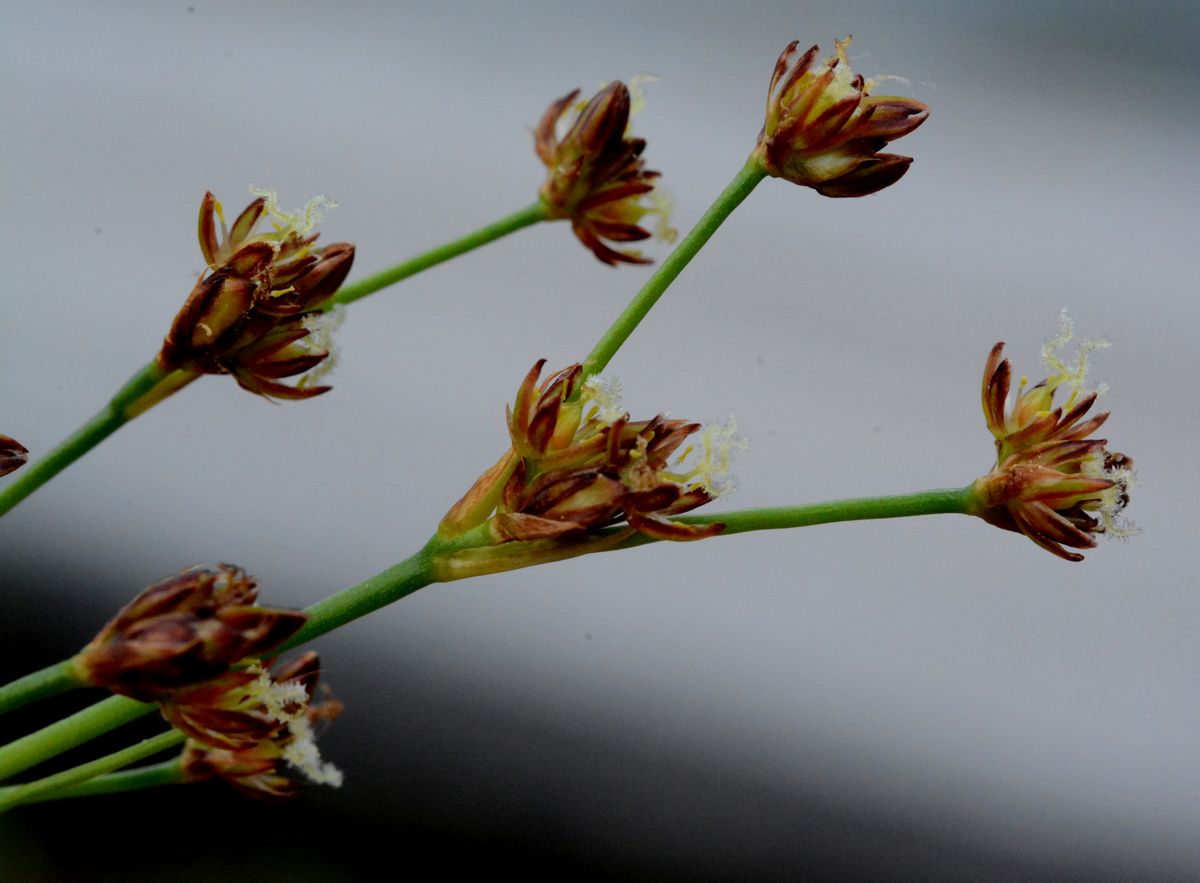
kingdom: Plantae
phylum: Tracheophyta
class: Liliopsida
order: Poales
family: Juncaceae
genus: Juncus
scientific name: Juncus articulatus
